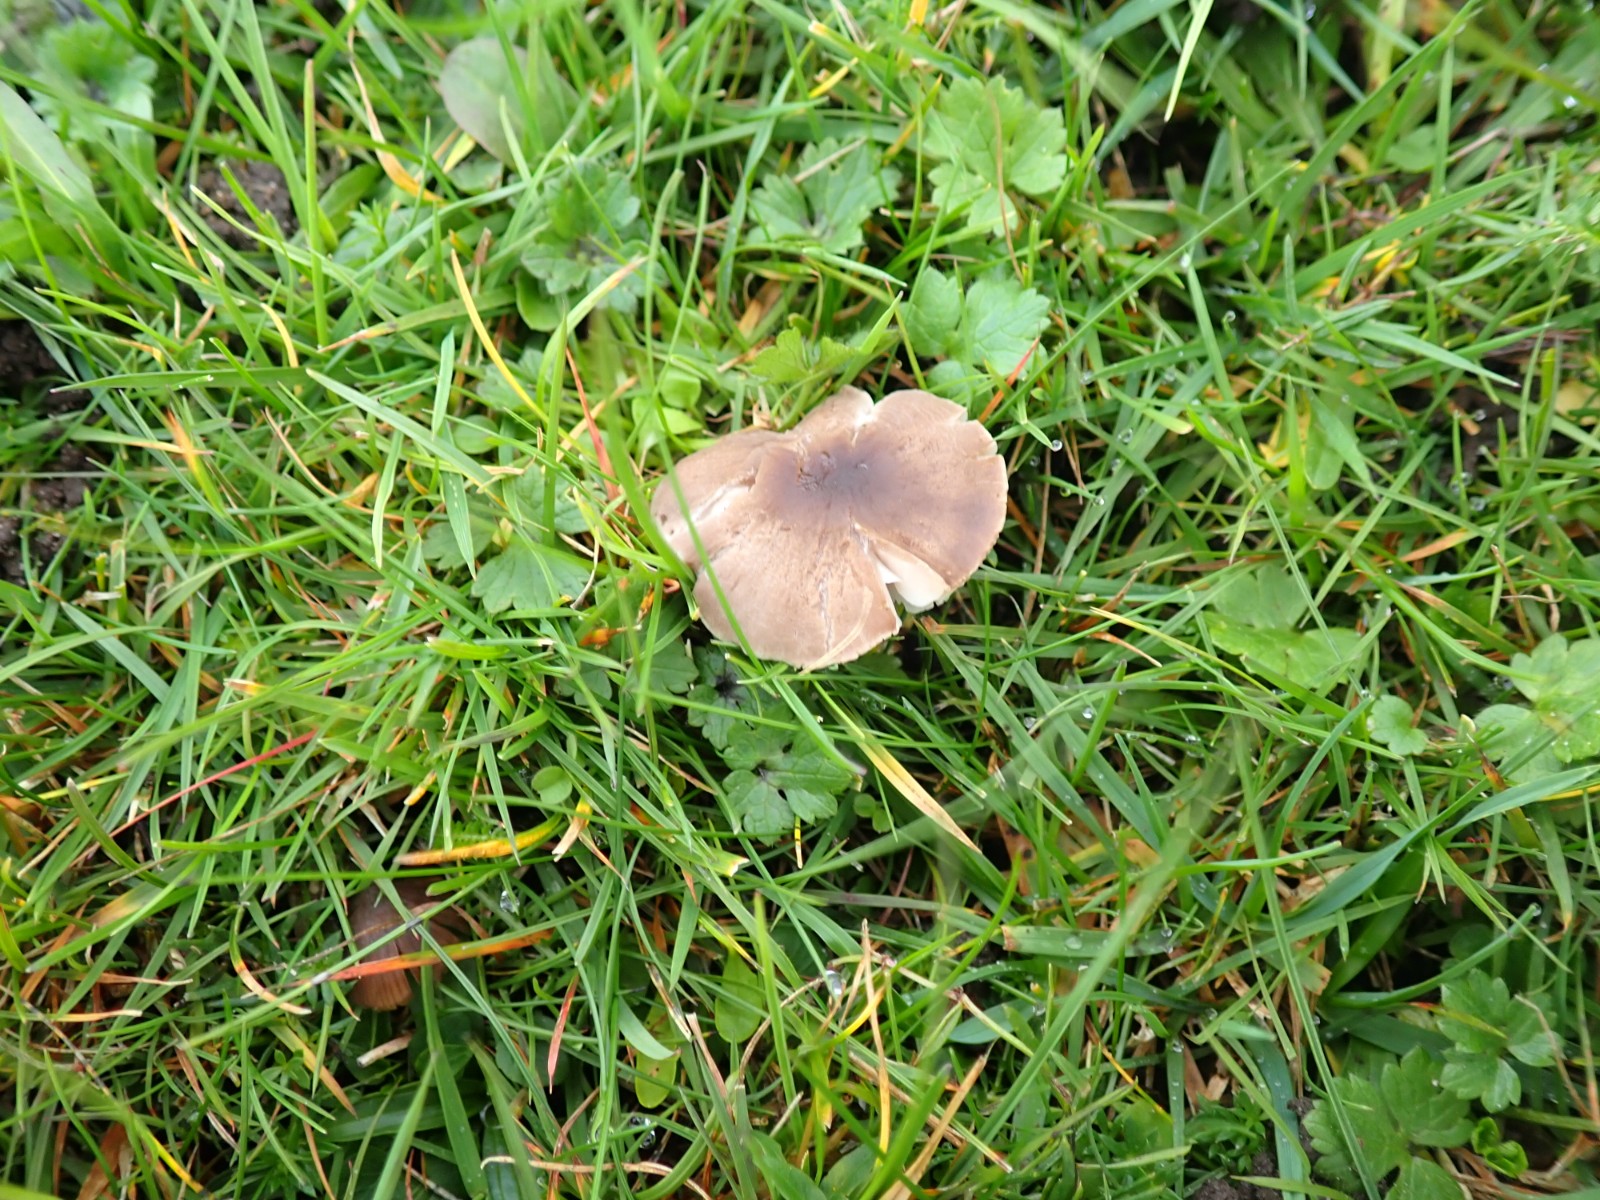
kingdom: Fungi
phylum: Basidiomycota
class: Agaricomycetes
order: Agaricales
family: Tricholomataceae
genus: Dermoloma
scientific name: Dermoloma
